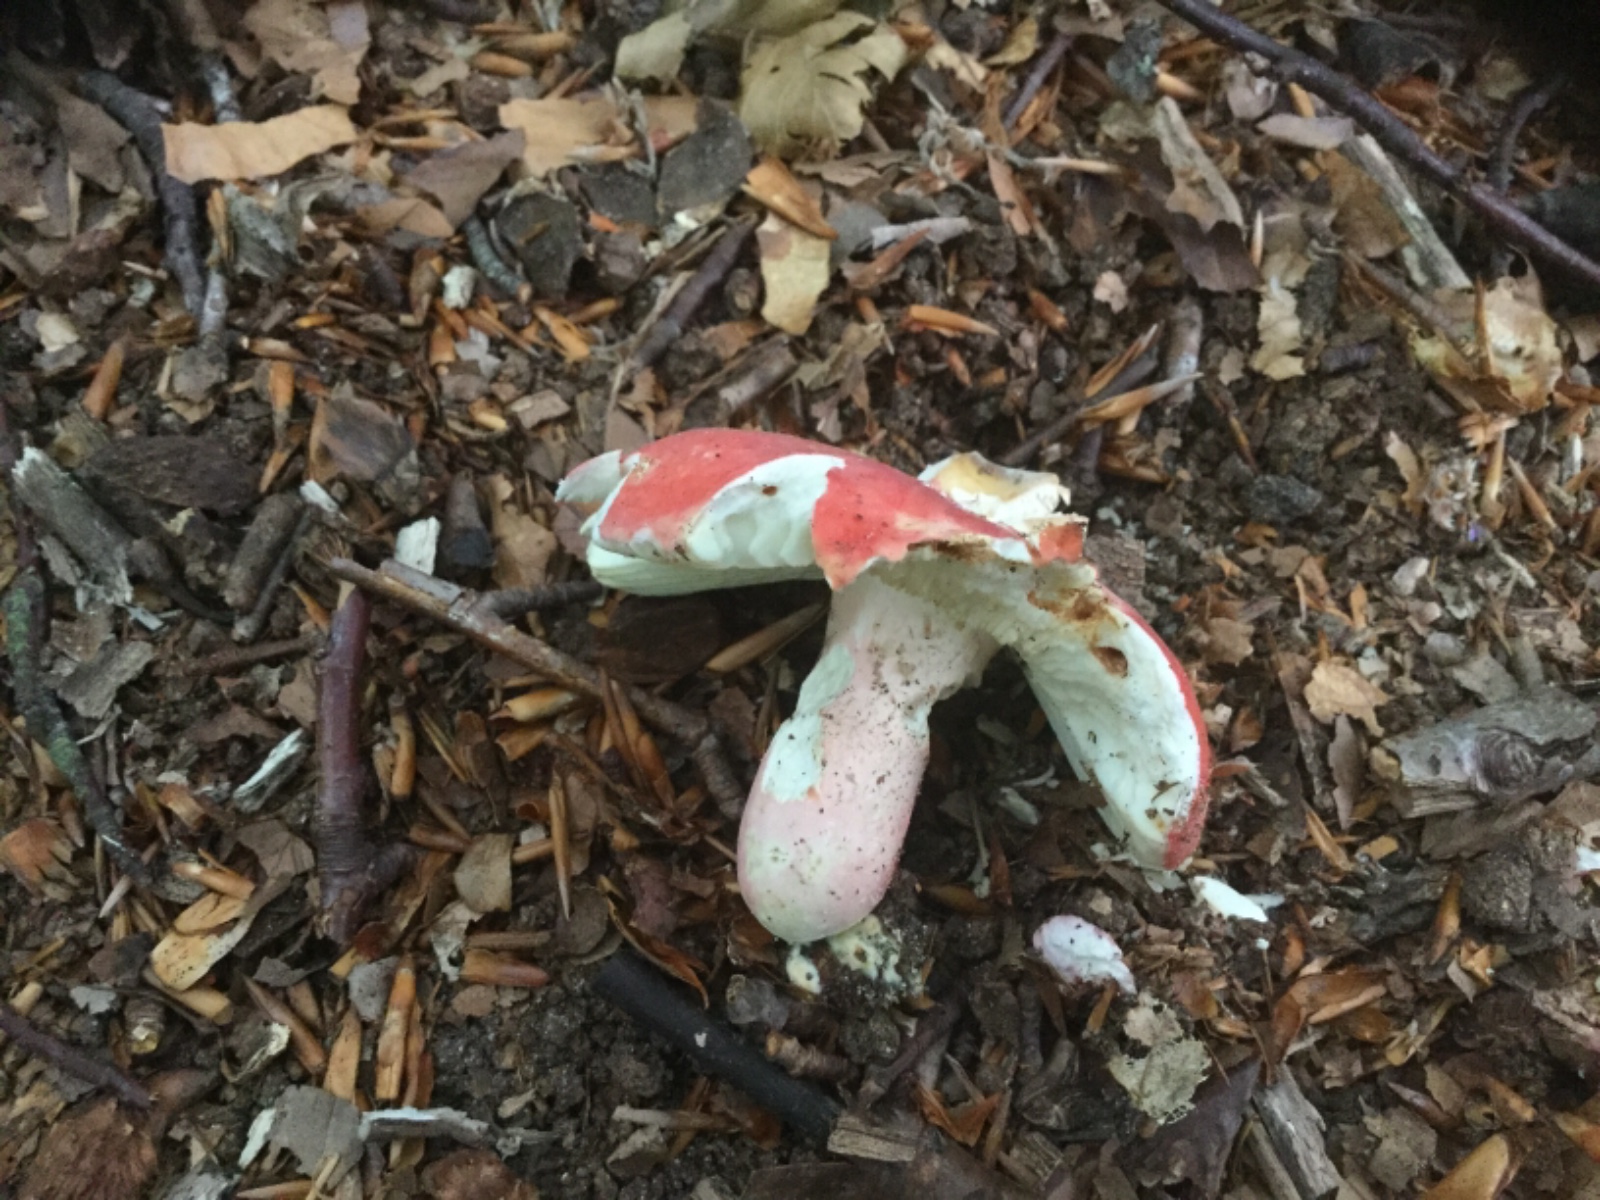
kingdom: Fungi
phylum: Basidiomycota
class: Agaricomycetes
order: Russulales
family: Russulaceae
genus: Russula
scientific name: Russula rosea
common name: fastkødet skørhat
